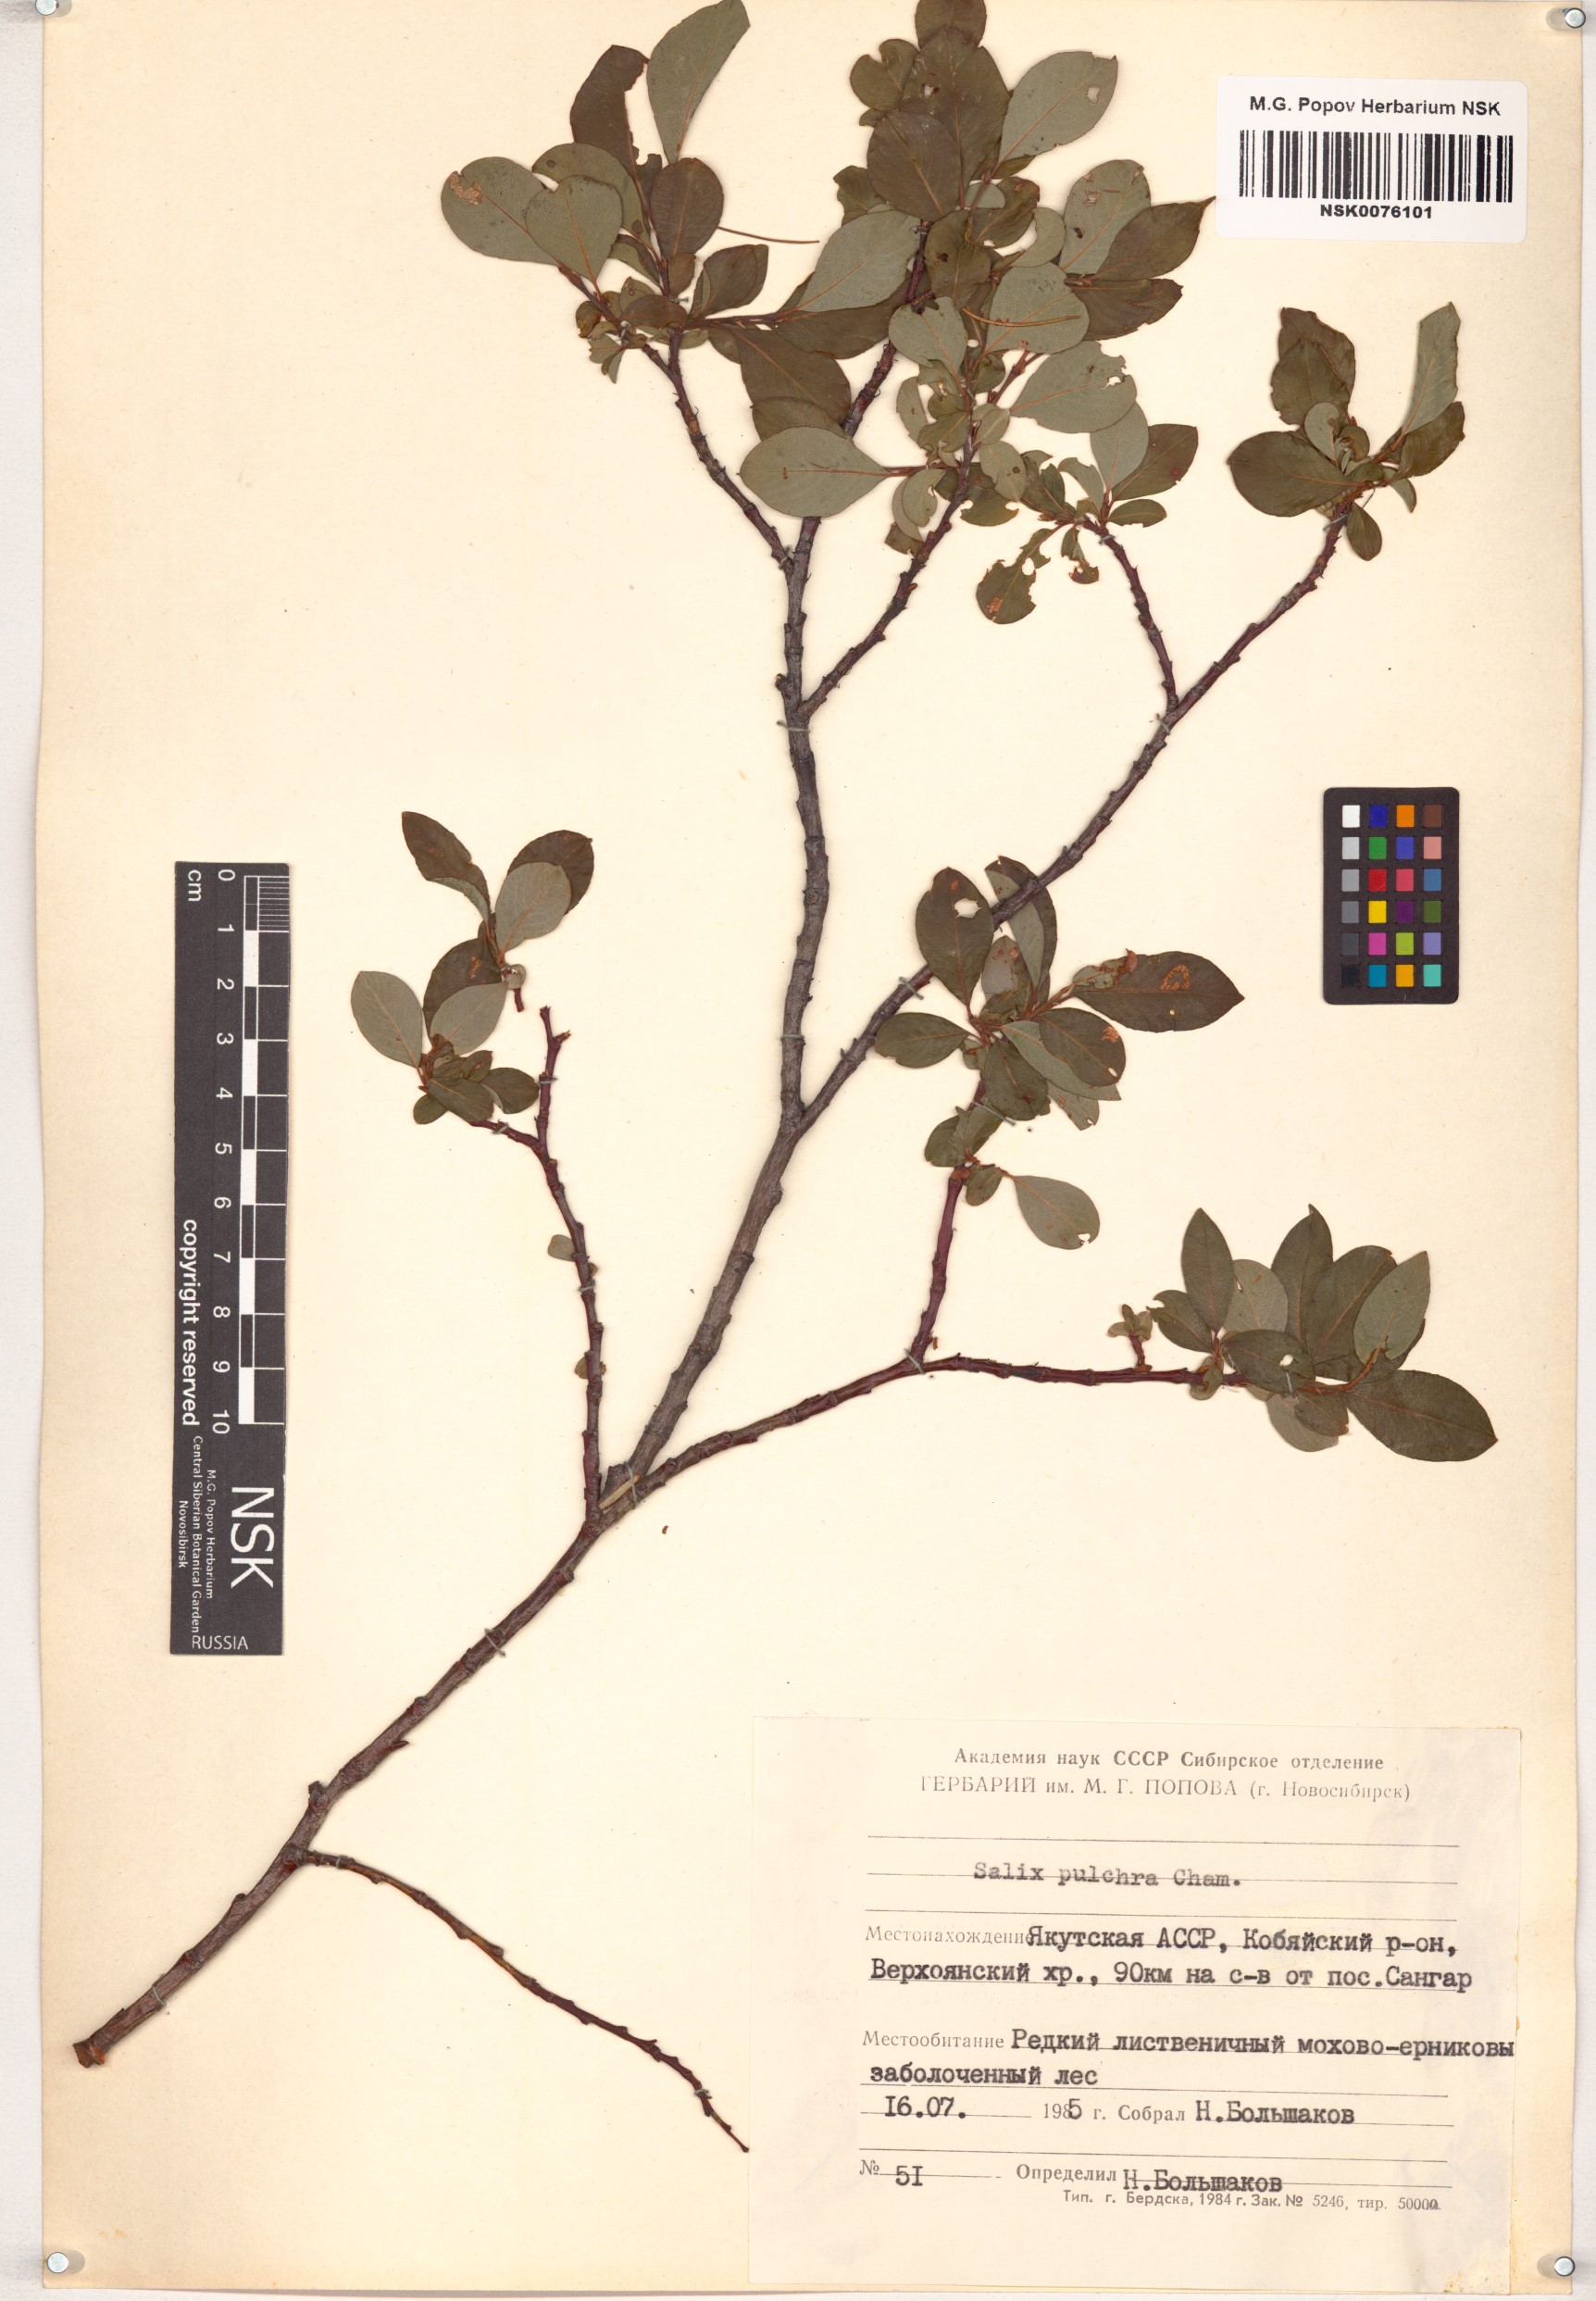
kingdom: Plantae
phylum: Tracheophyta
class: Magnoliopsida
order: Malpighiales
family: Salicaceae
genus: Salix
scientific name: Salix pulchra
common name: Diamond-leaved willow
